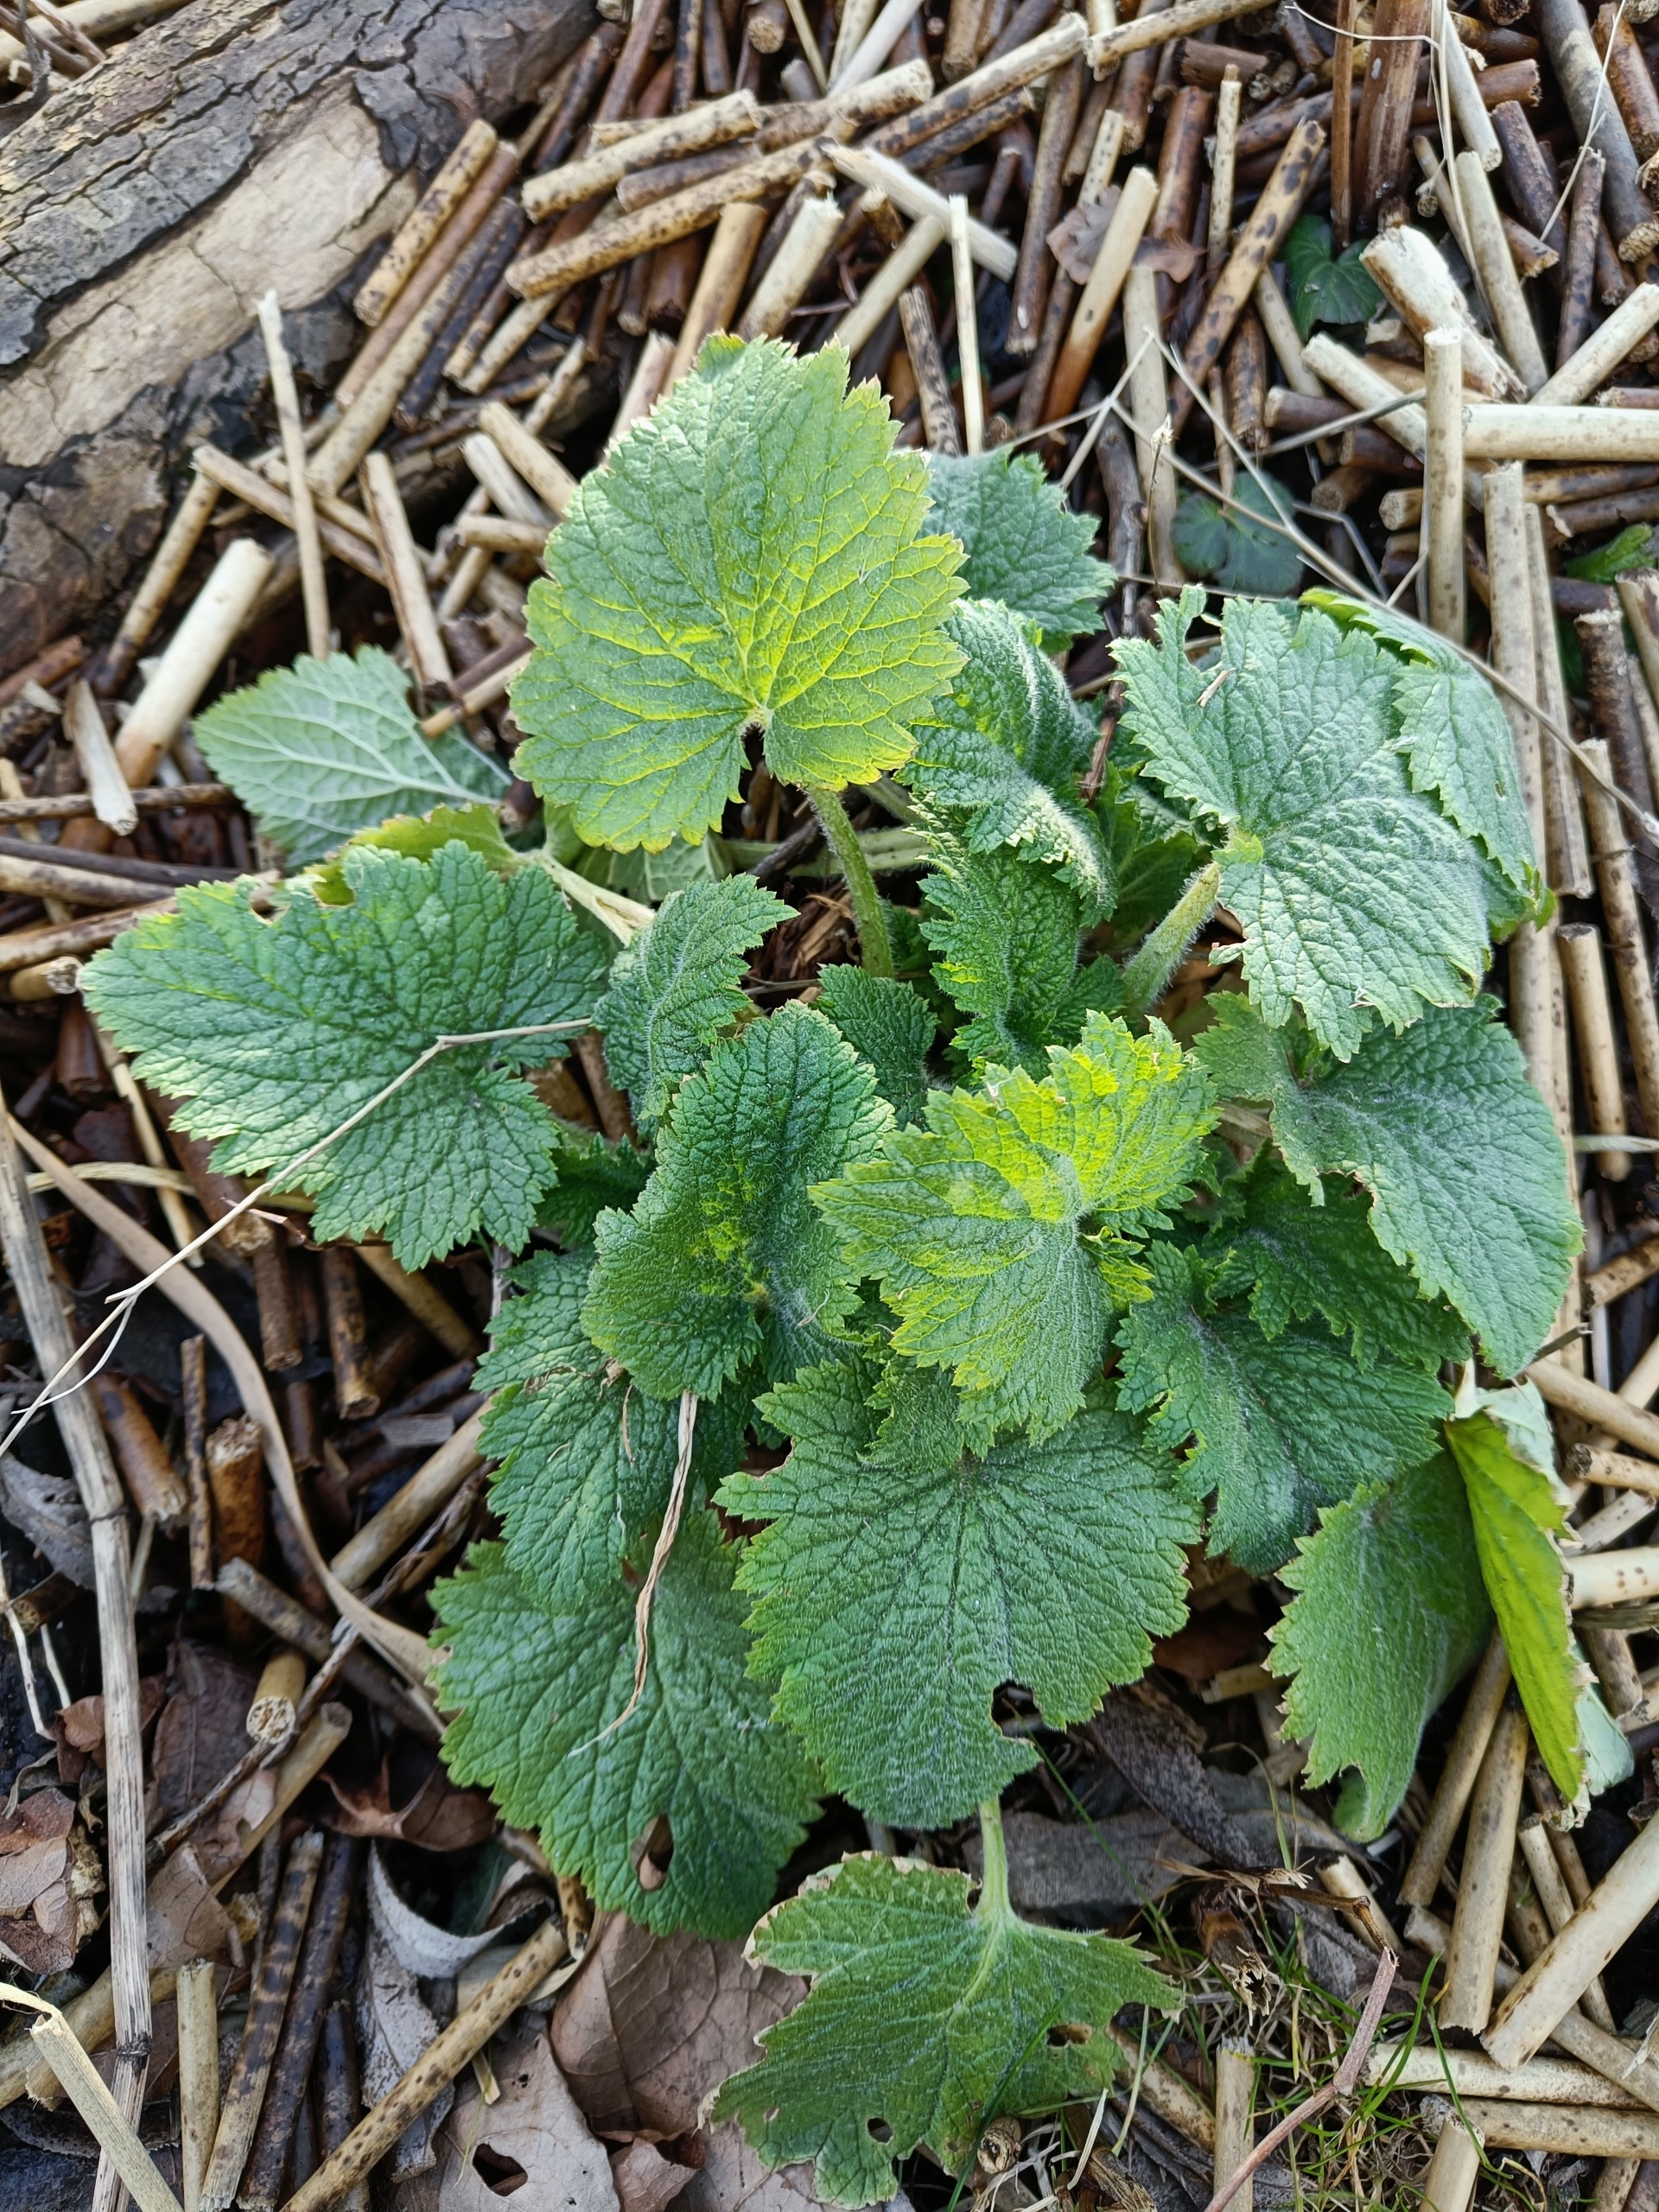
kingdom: Plantae
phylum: Tracheophyta
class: Magnoliopsida
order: Lamiales
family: Scrophulariaceae
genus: Scrophularia
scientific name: Scrophularia vernalis
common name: Vår-brunrod
